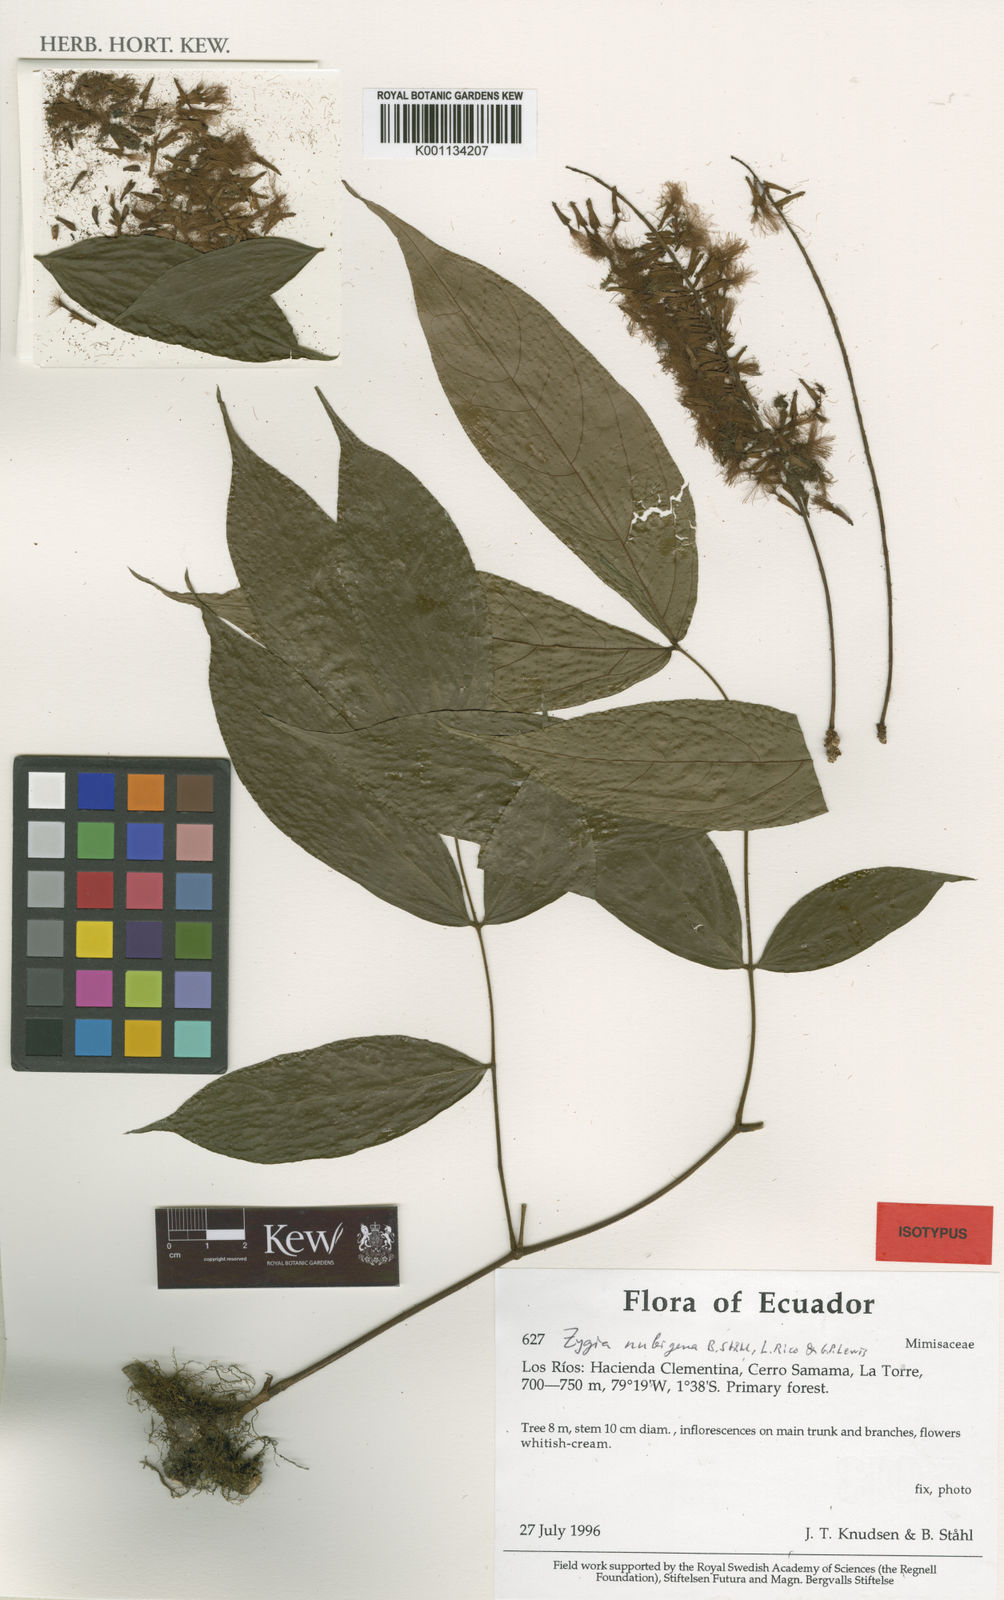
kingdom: Plantae
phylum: Tracheophyta
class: Magnoliopsida
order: Fabales
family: Fabaceae
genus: Zygia
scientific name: Zygia
